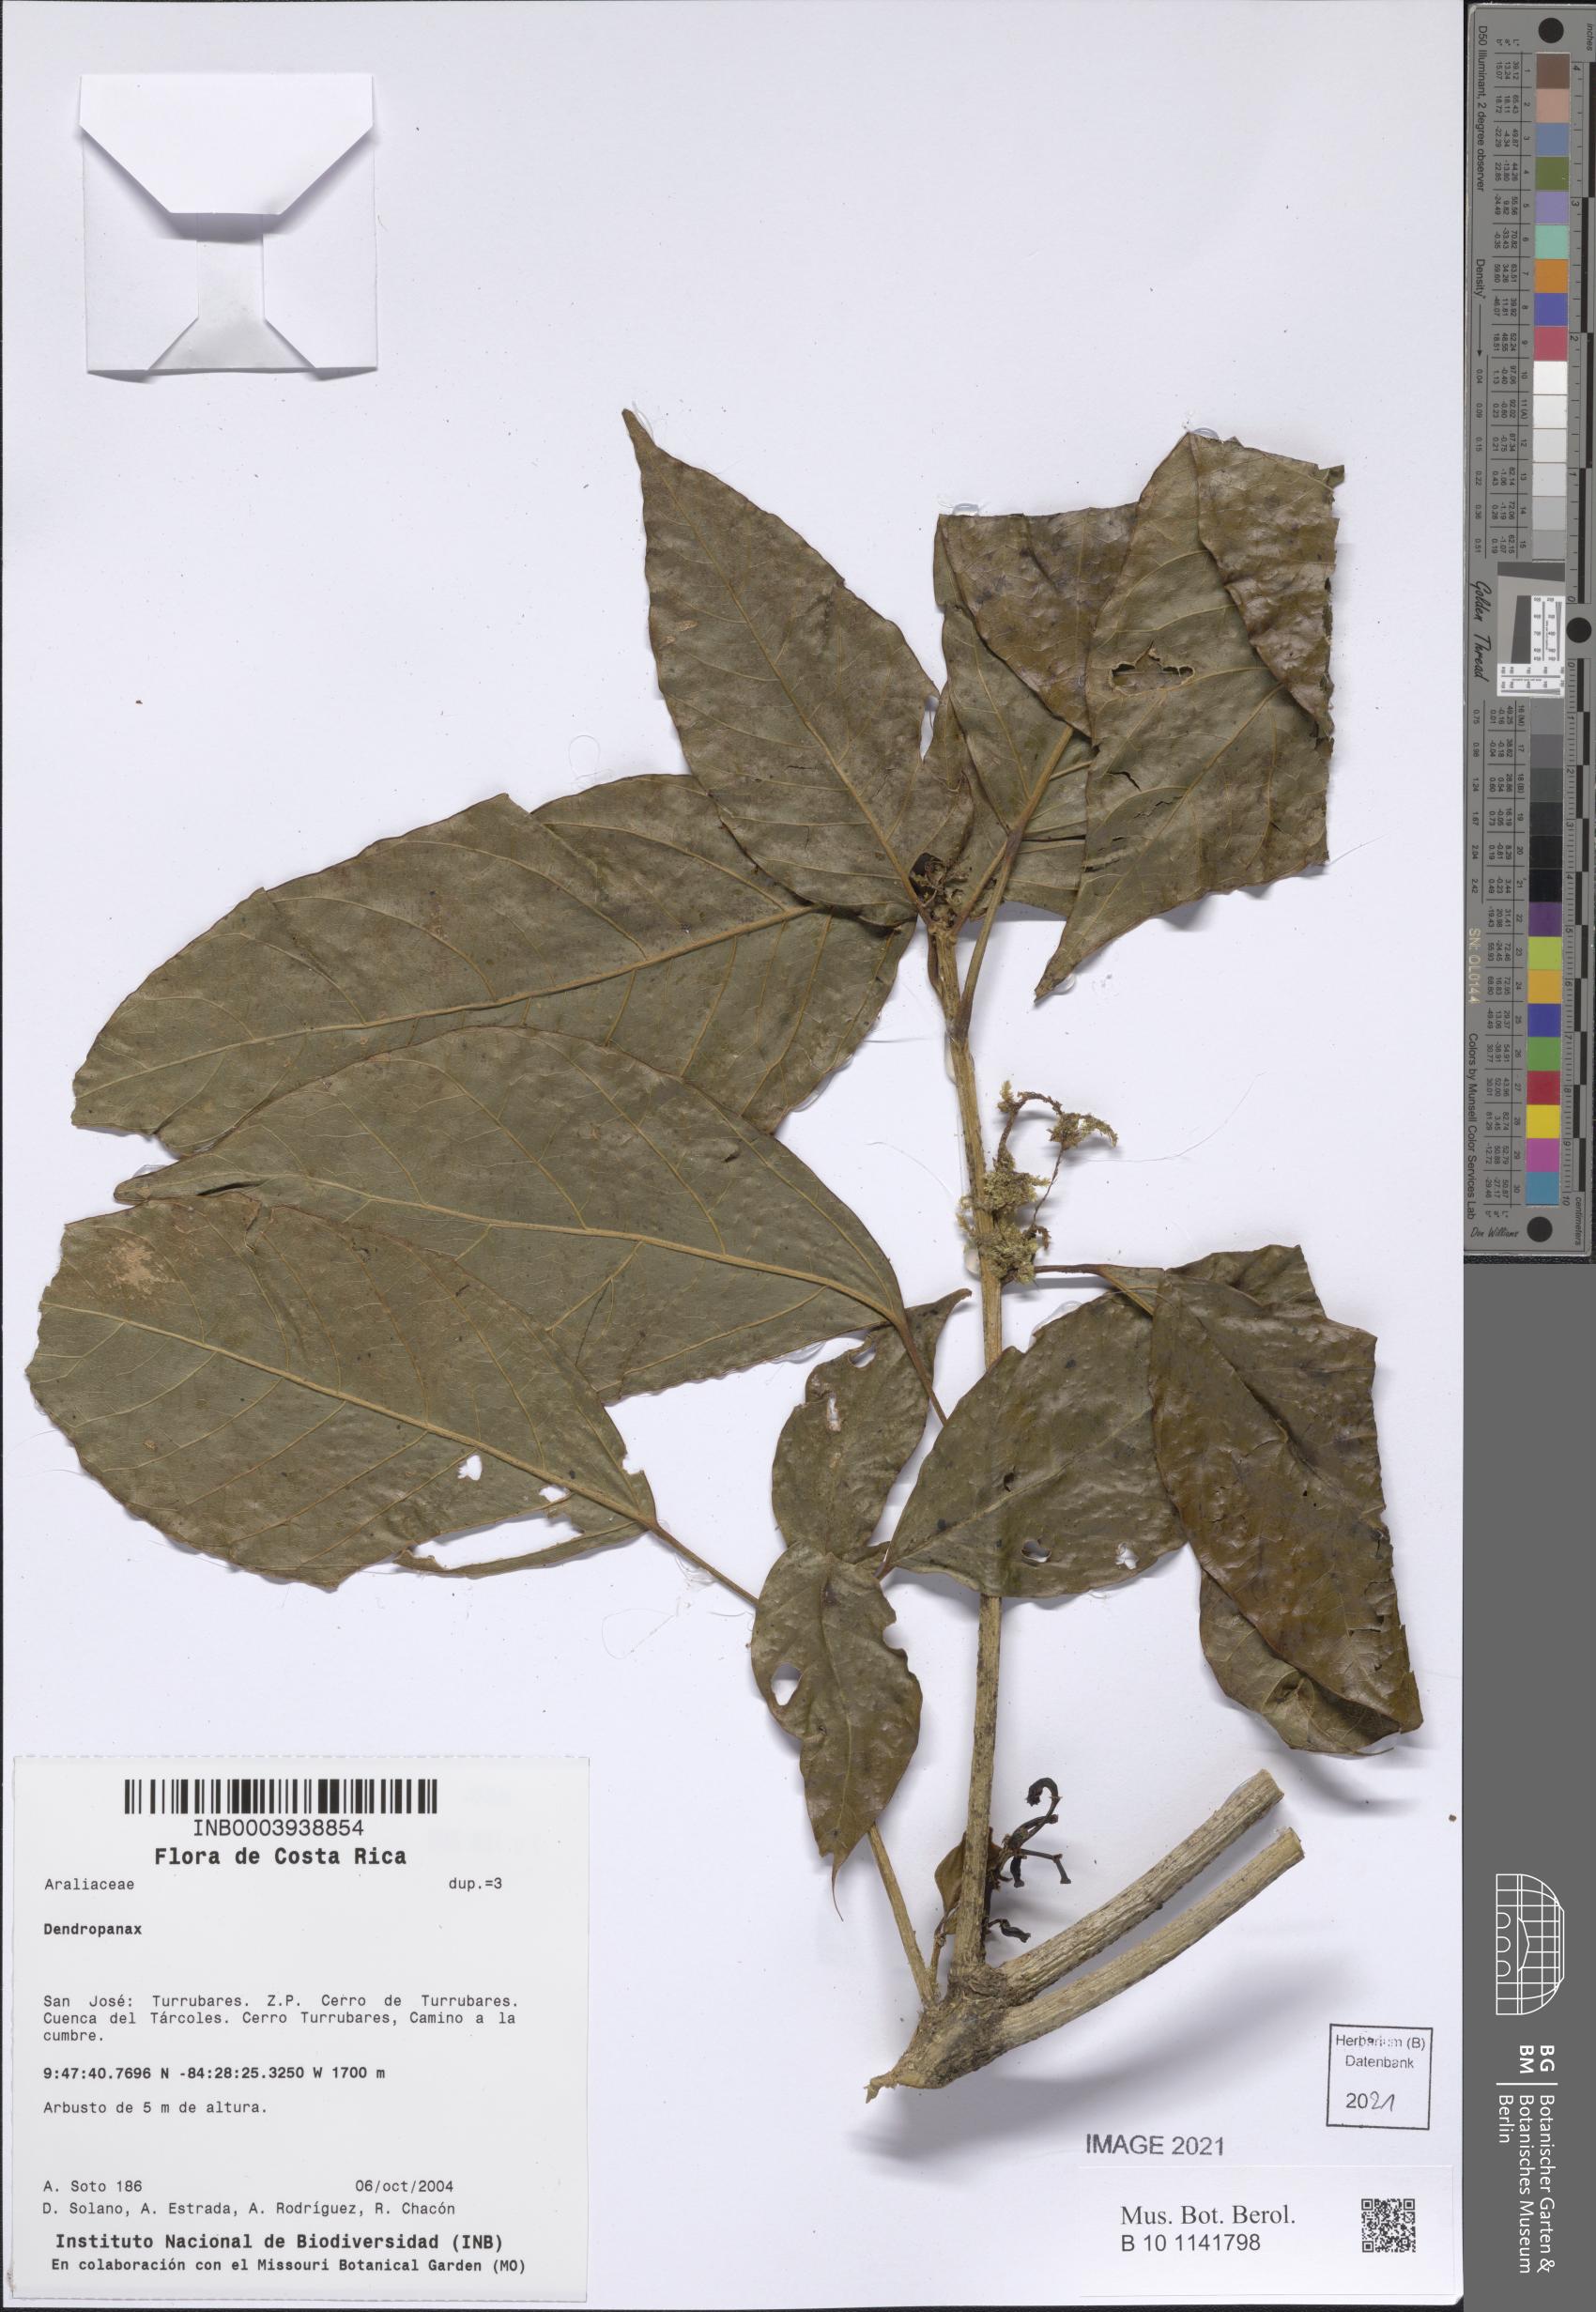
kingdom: Plantae
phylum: Tracheophyta
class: Magnoliopsida
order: Apiales
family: Araliaceae
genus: Dendropanax
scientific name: Dendropanax
